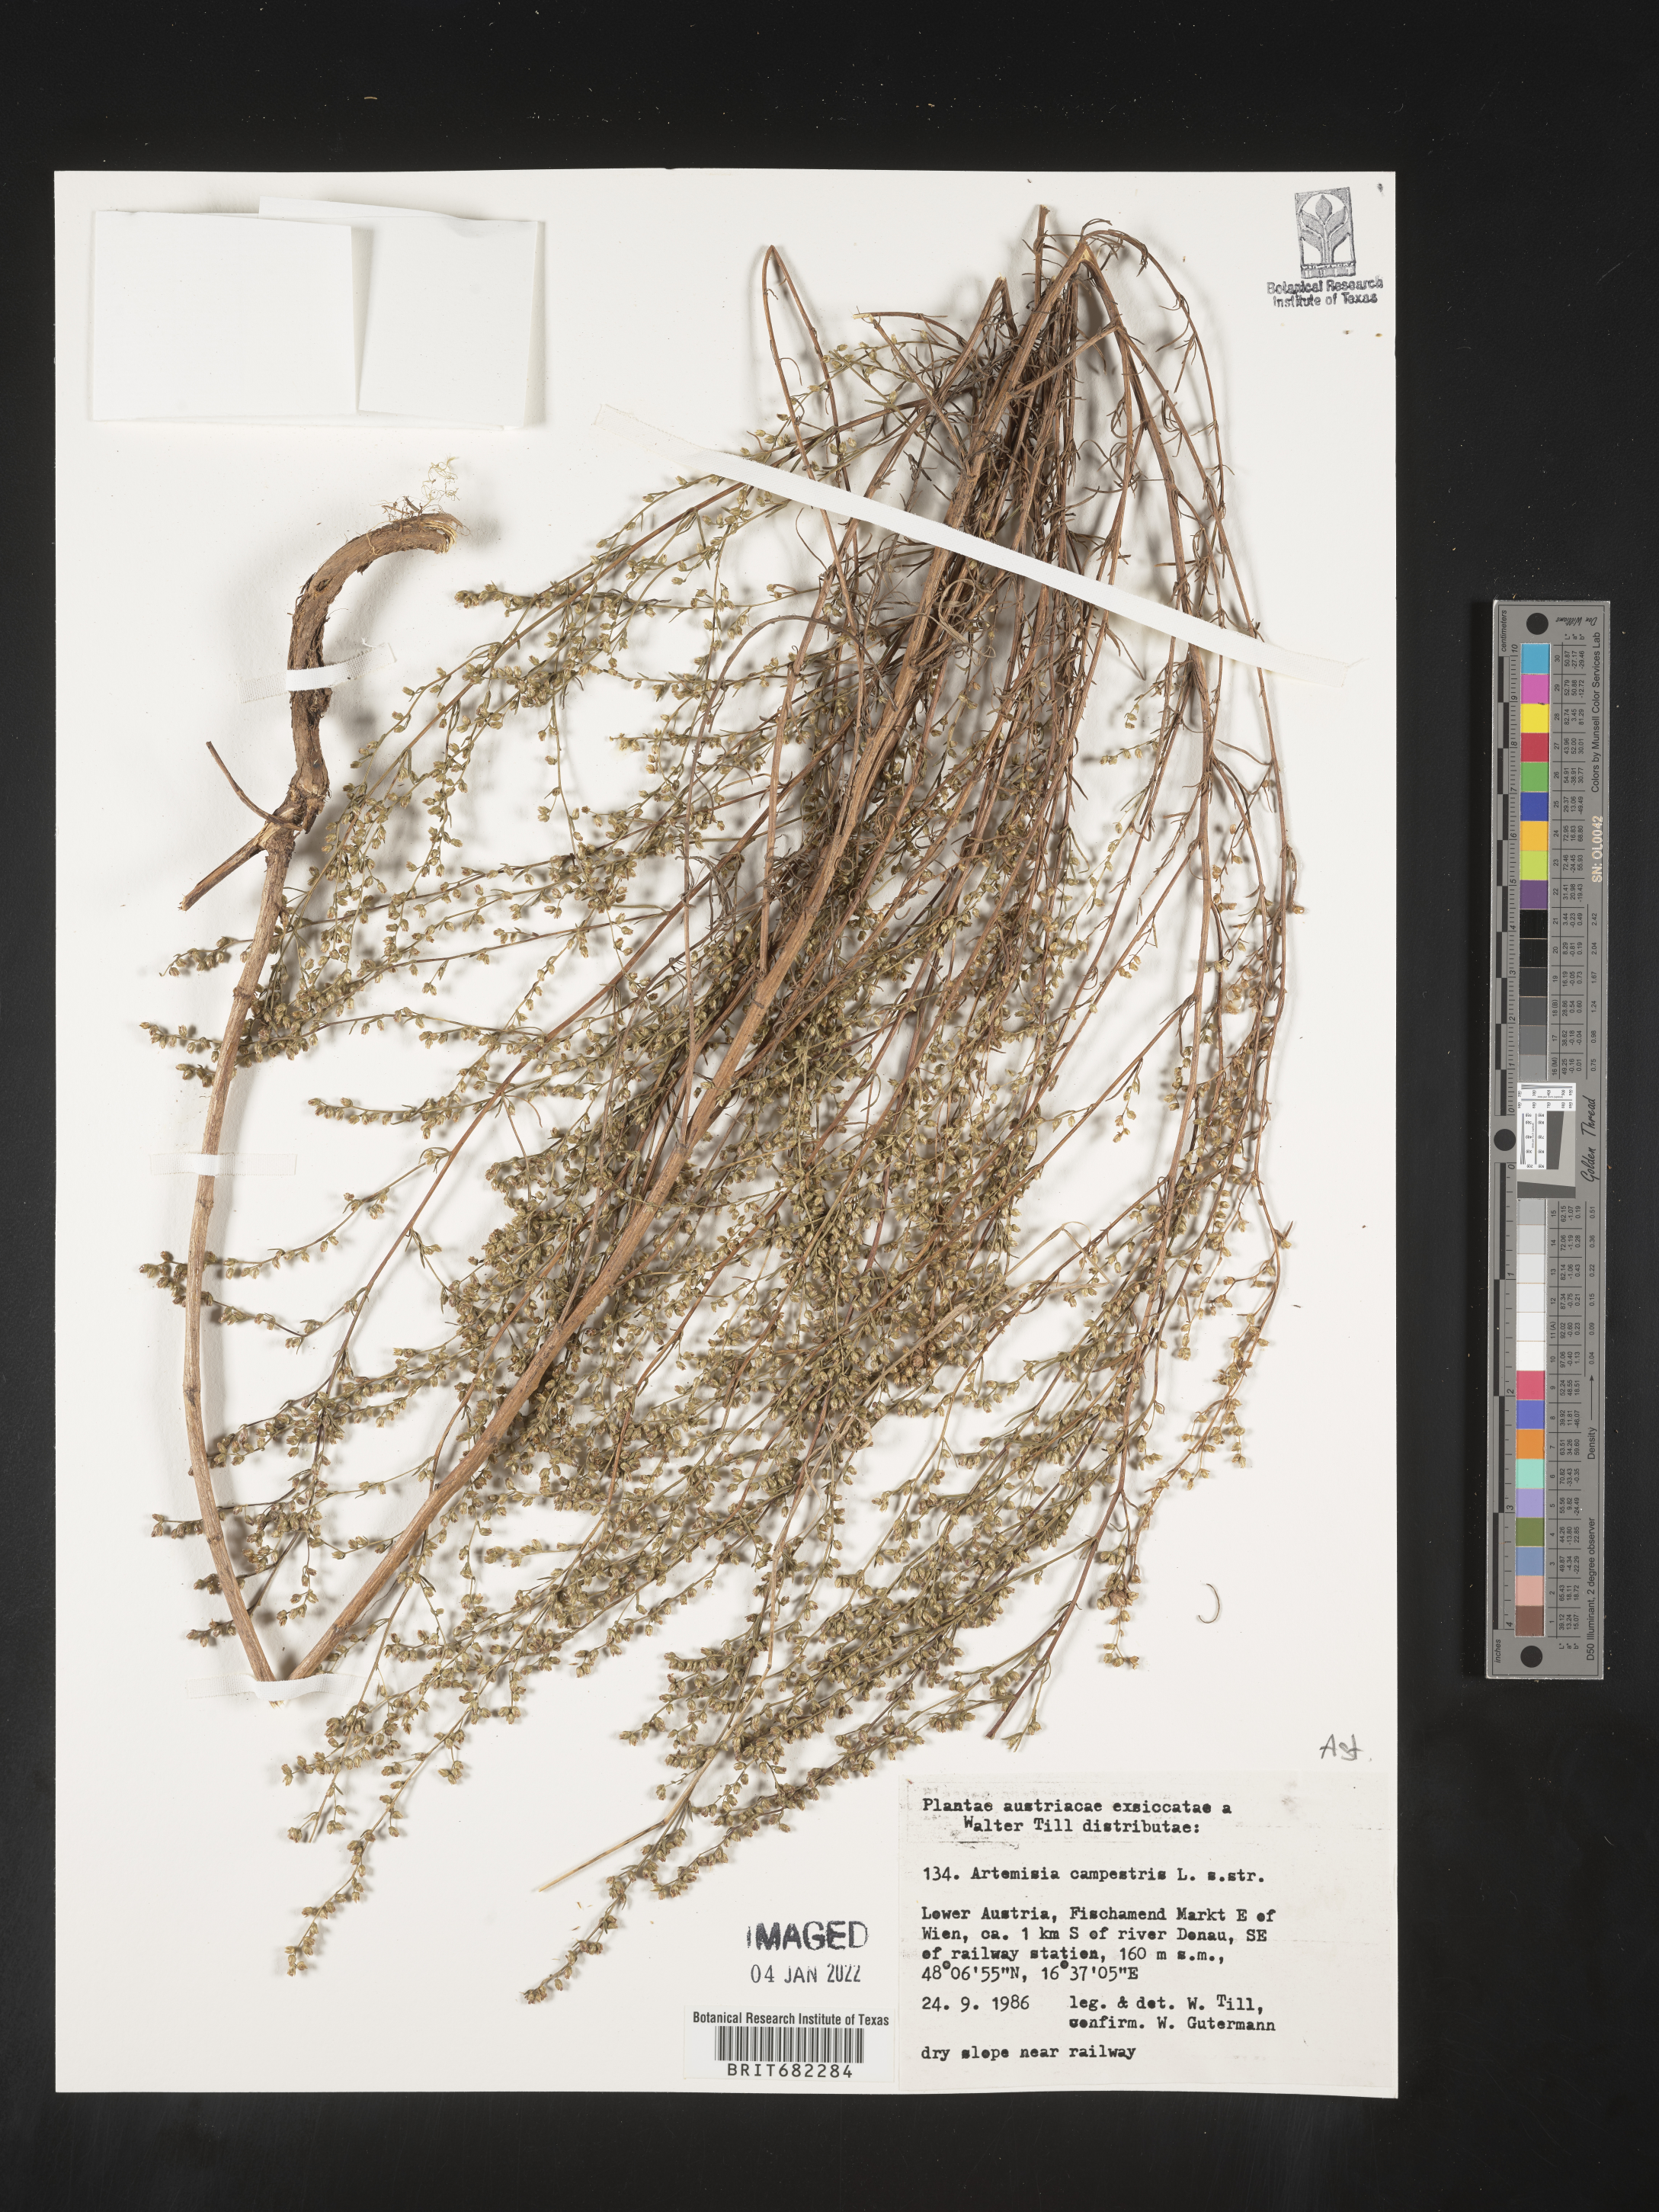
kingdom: Plantae
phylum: Tracheophyta
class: Magnoliopsida
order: Asterales
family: Asteraceae
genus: Artemisia
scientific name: Artemisia campestris
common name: Field wormwood
